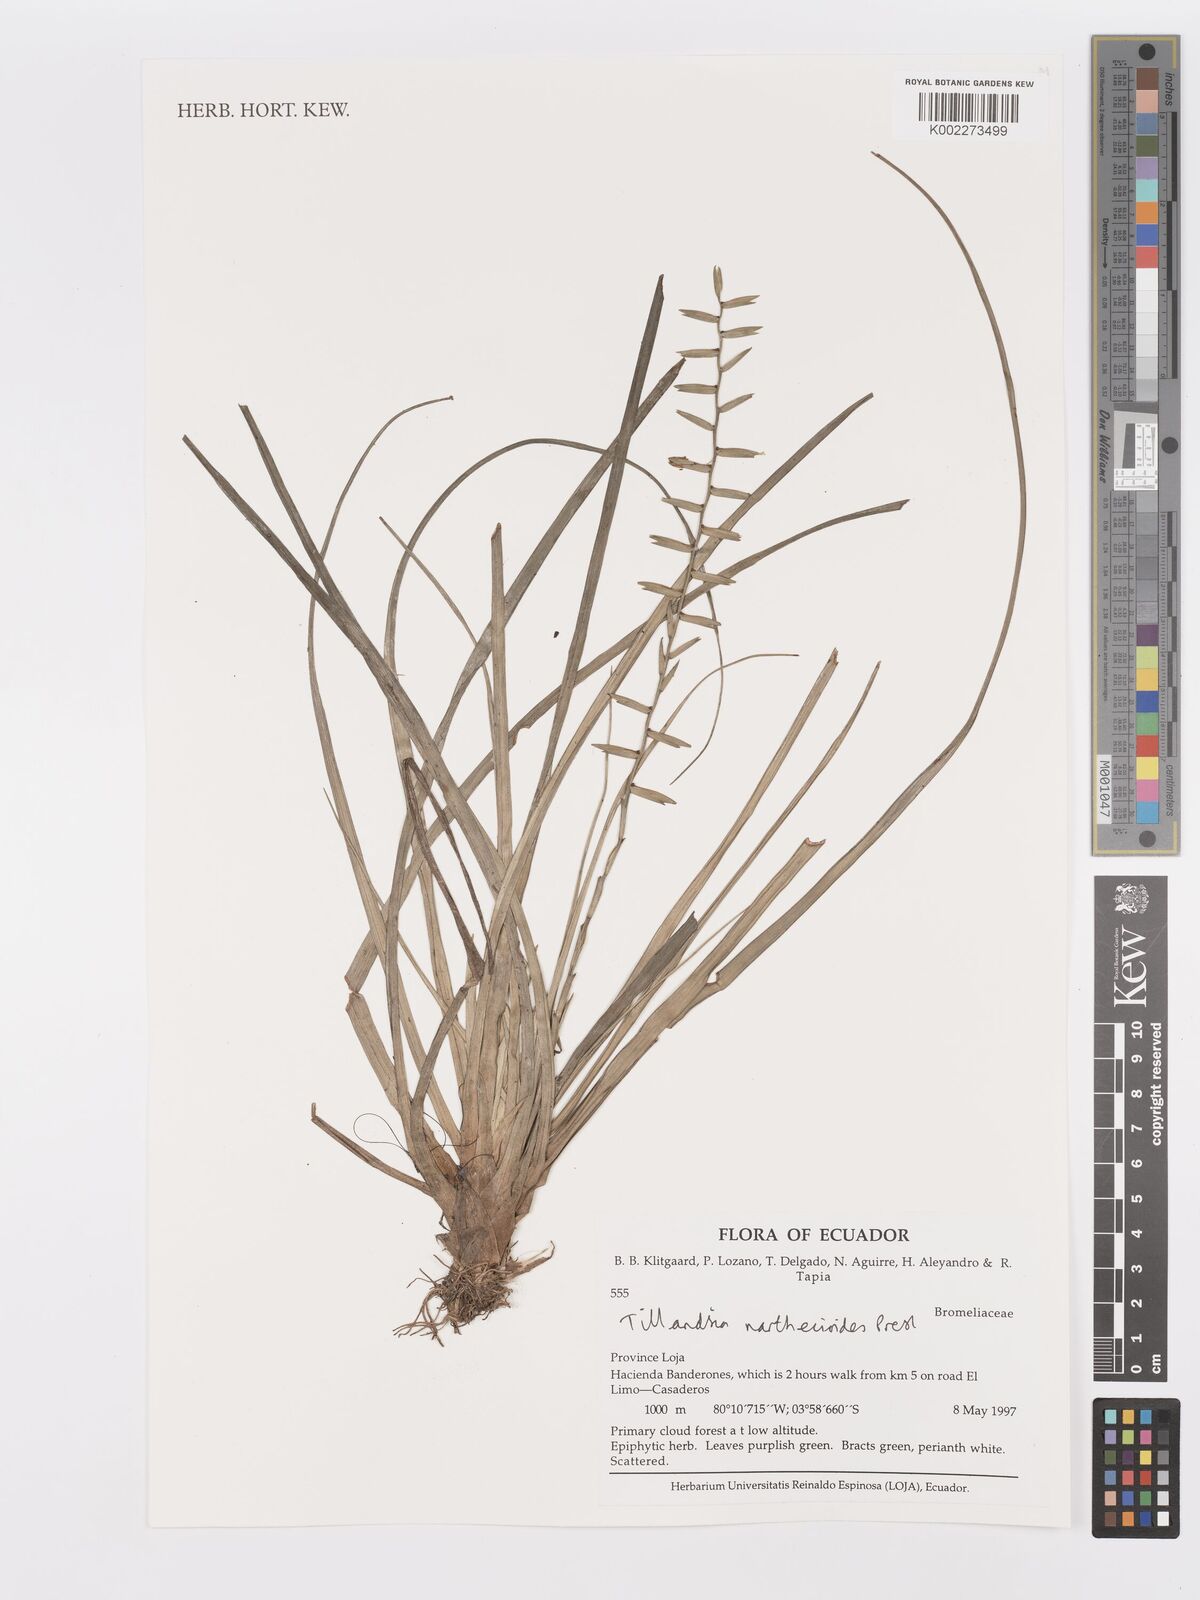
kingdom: Plantae
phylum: Tracheophyta
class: Liliopsida
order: Poales
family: Bromeliaceae
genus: Lemeltonia
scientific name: Lemeltonia narthecioides
